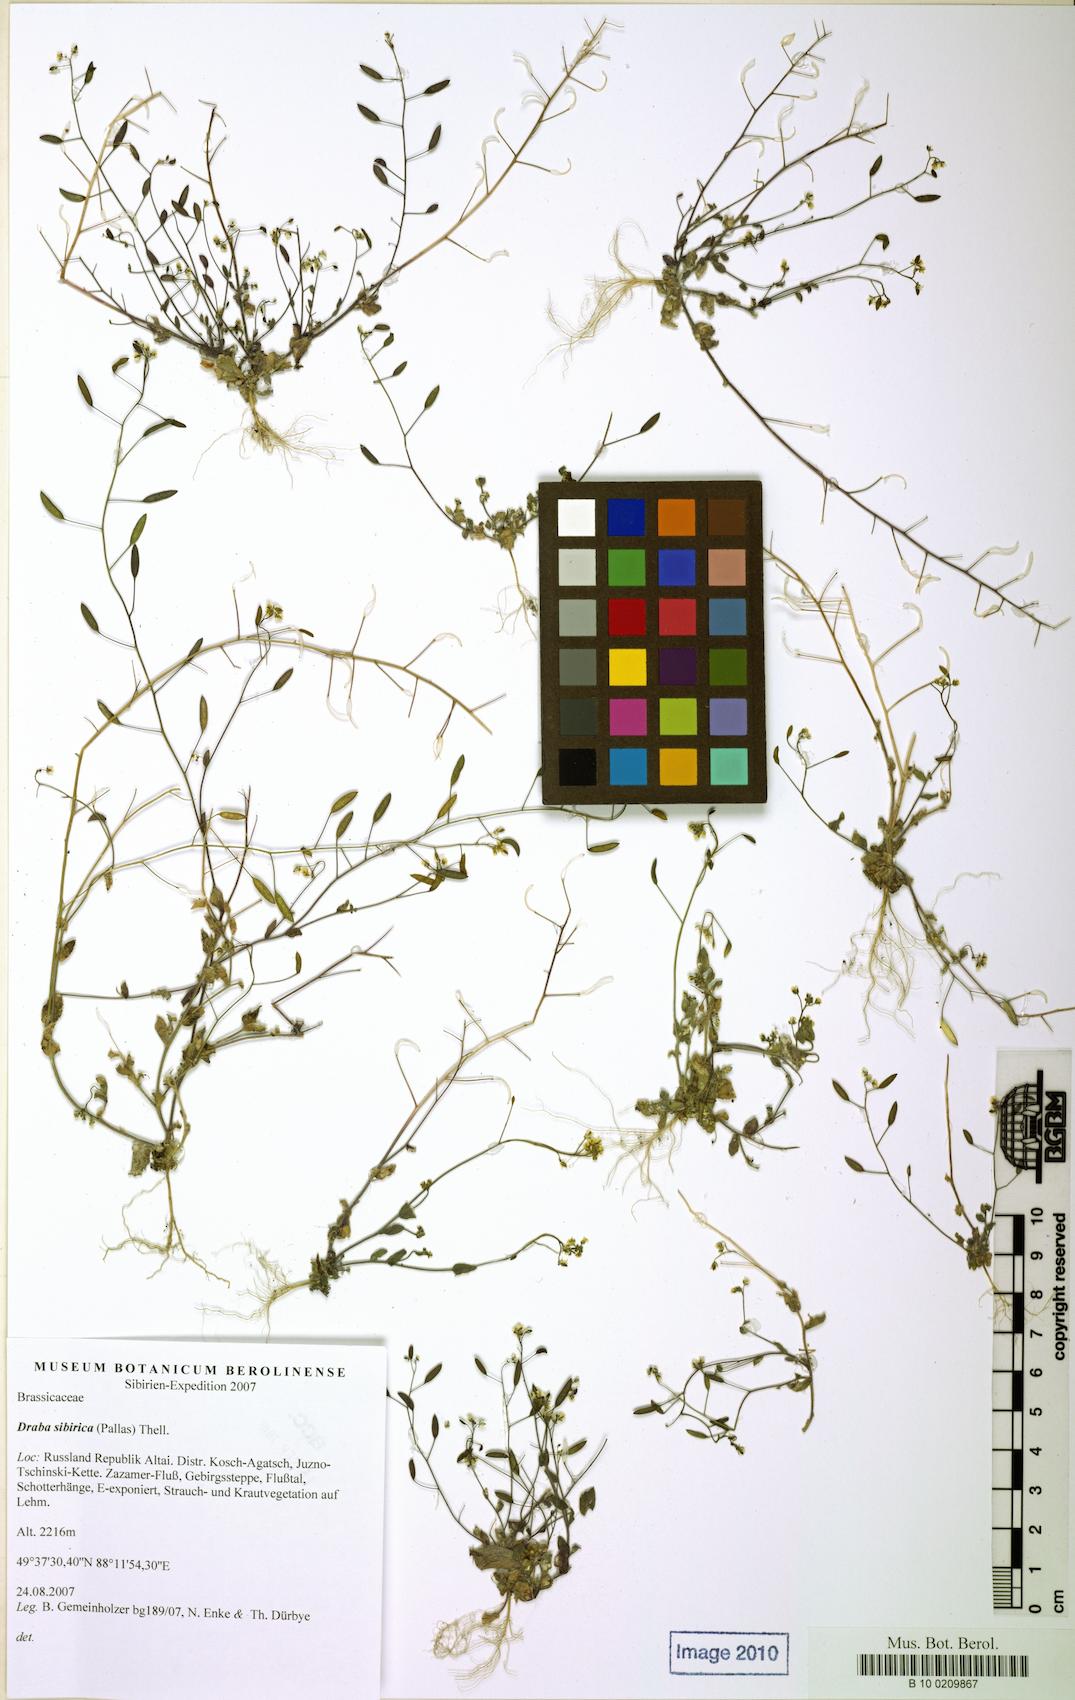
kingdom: Plantae
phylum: Tracheophyta
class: Magnoliopsida
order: Brassicales
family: Brassicaceae
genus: Draba
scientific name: Draba sibirica
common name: Siberian draba
